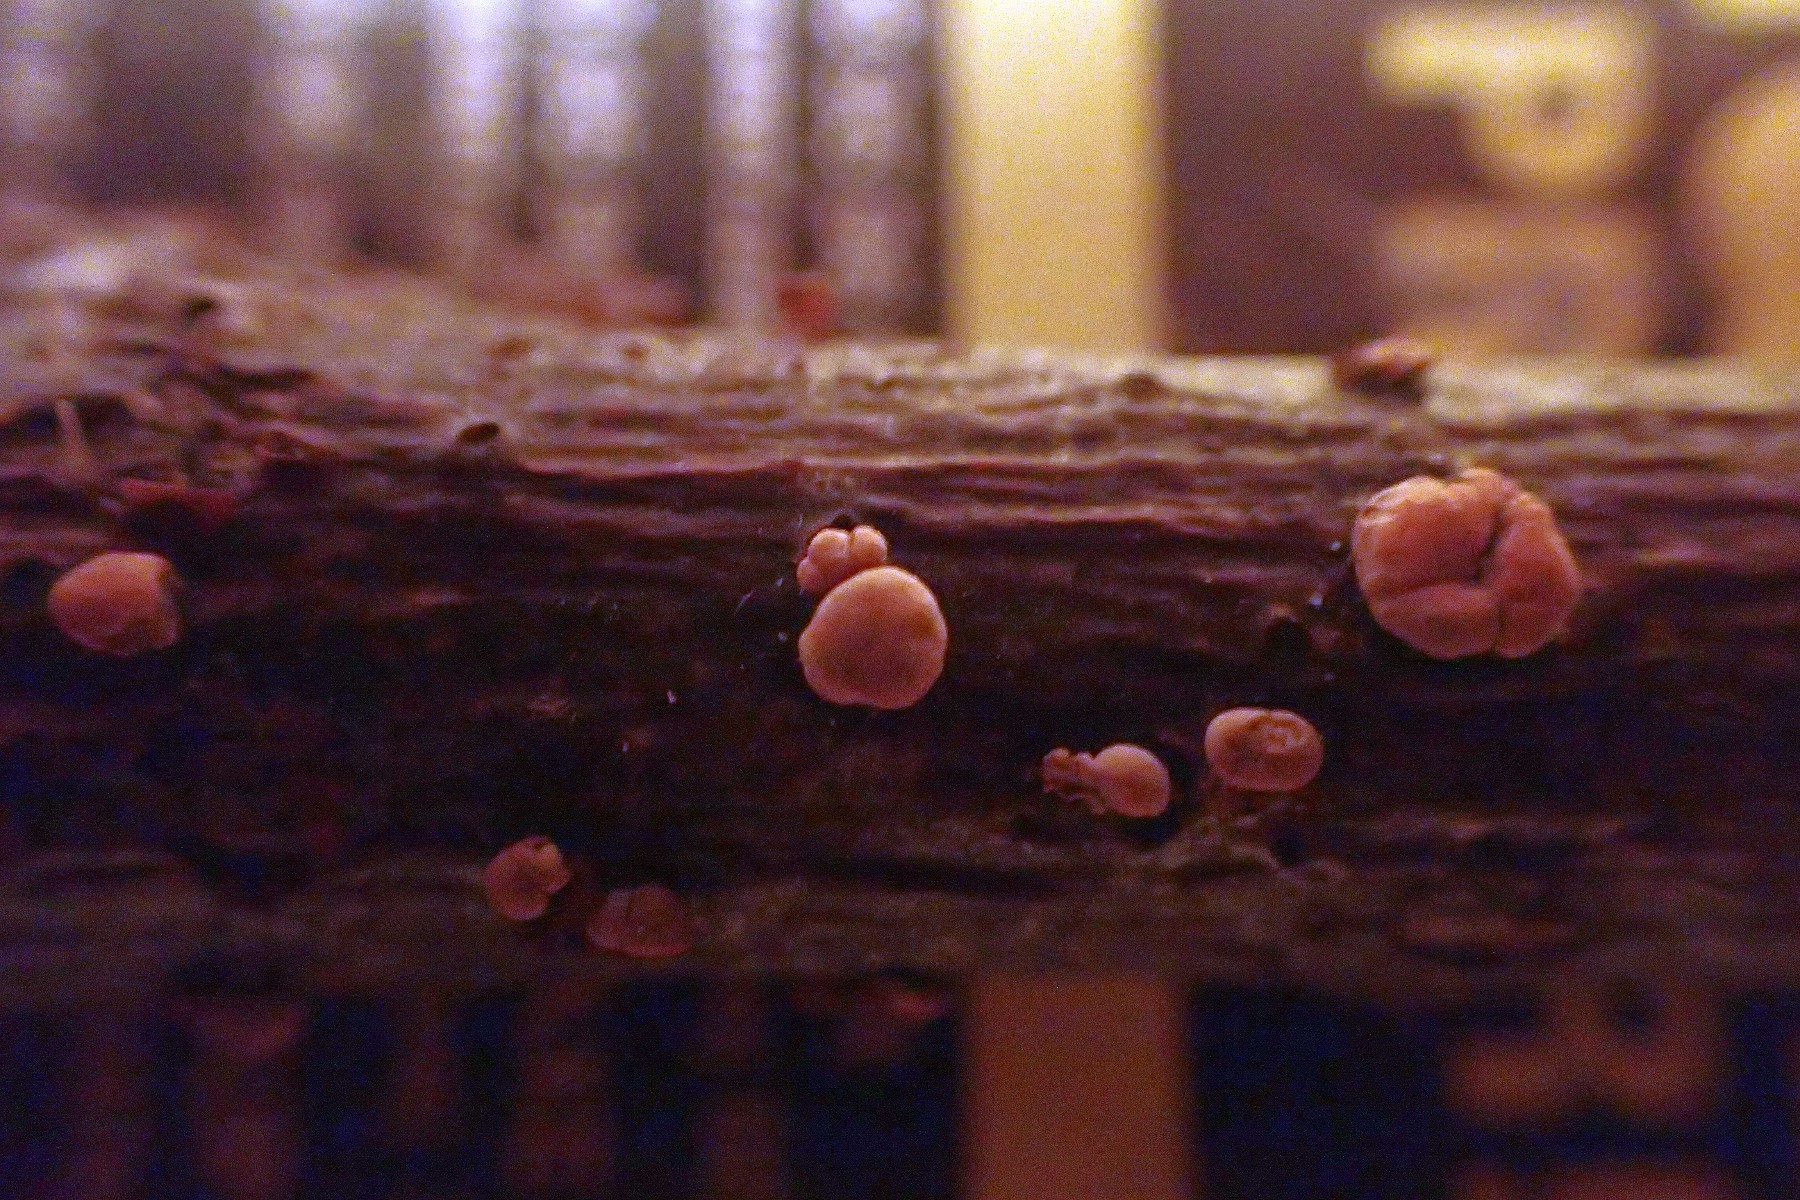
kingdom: Fungi
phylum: Ascomycota
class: Sordariomycetes
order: Hypocreales
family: Nectriaceae
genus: Nectria
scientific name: Nectria cinnabarina
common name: almindelig cinnobersvamp
